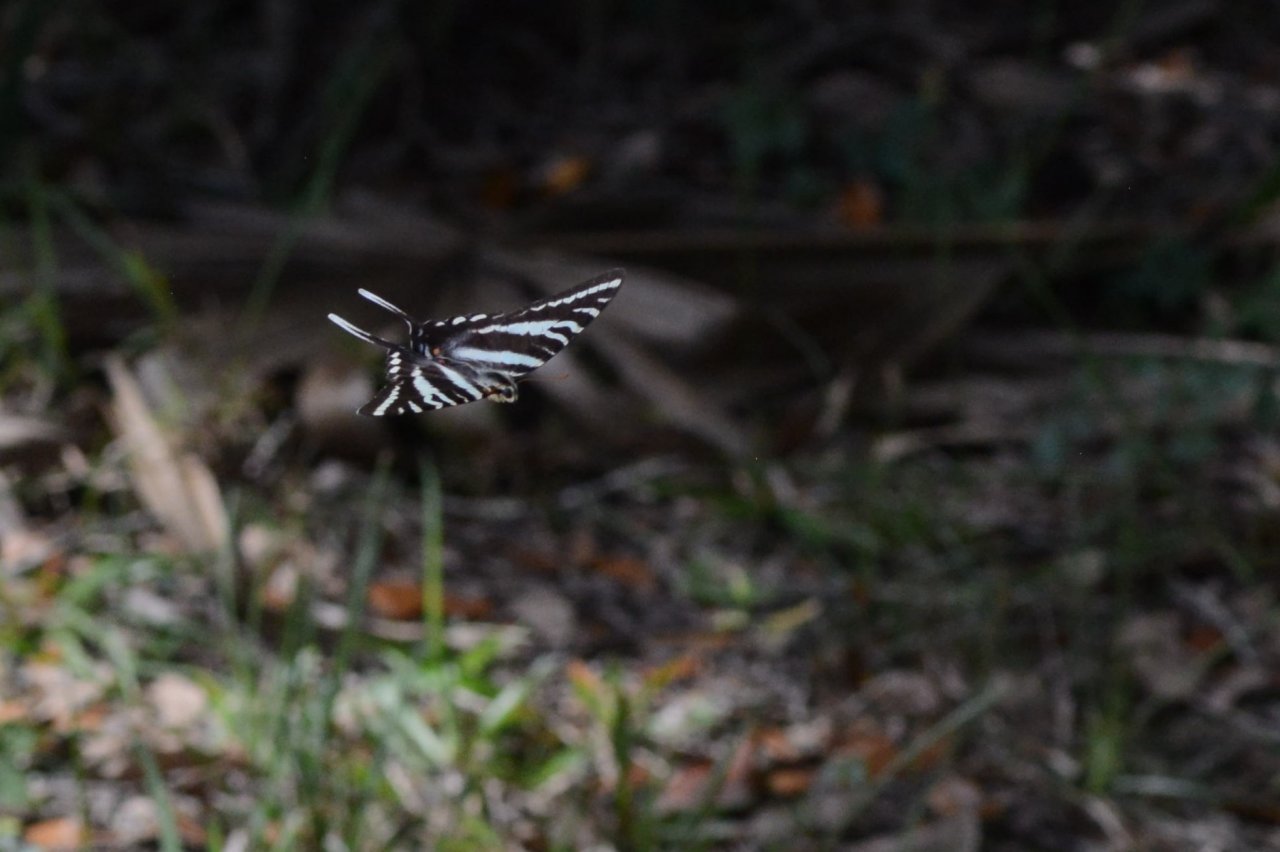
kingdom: Animalia
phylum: Arthropoda
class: Insecta
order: Lepidoptera
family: Papilionidae
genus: Protographium
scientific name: Protographium marcellus
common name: Zebra Swallowtail
